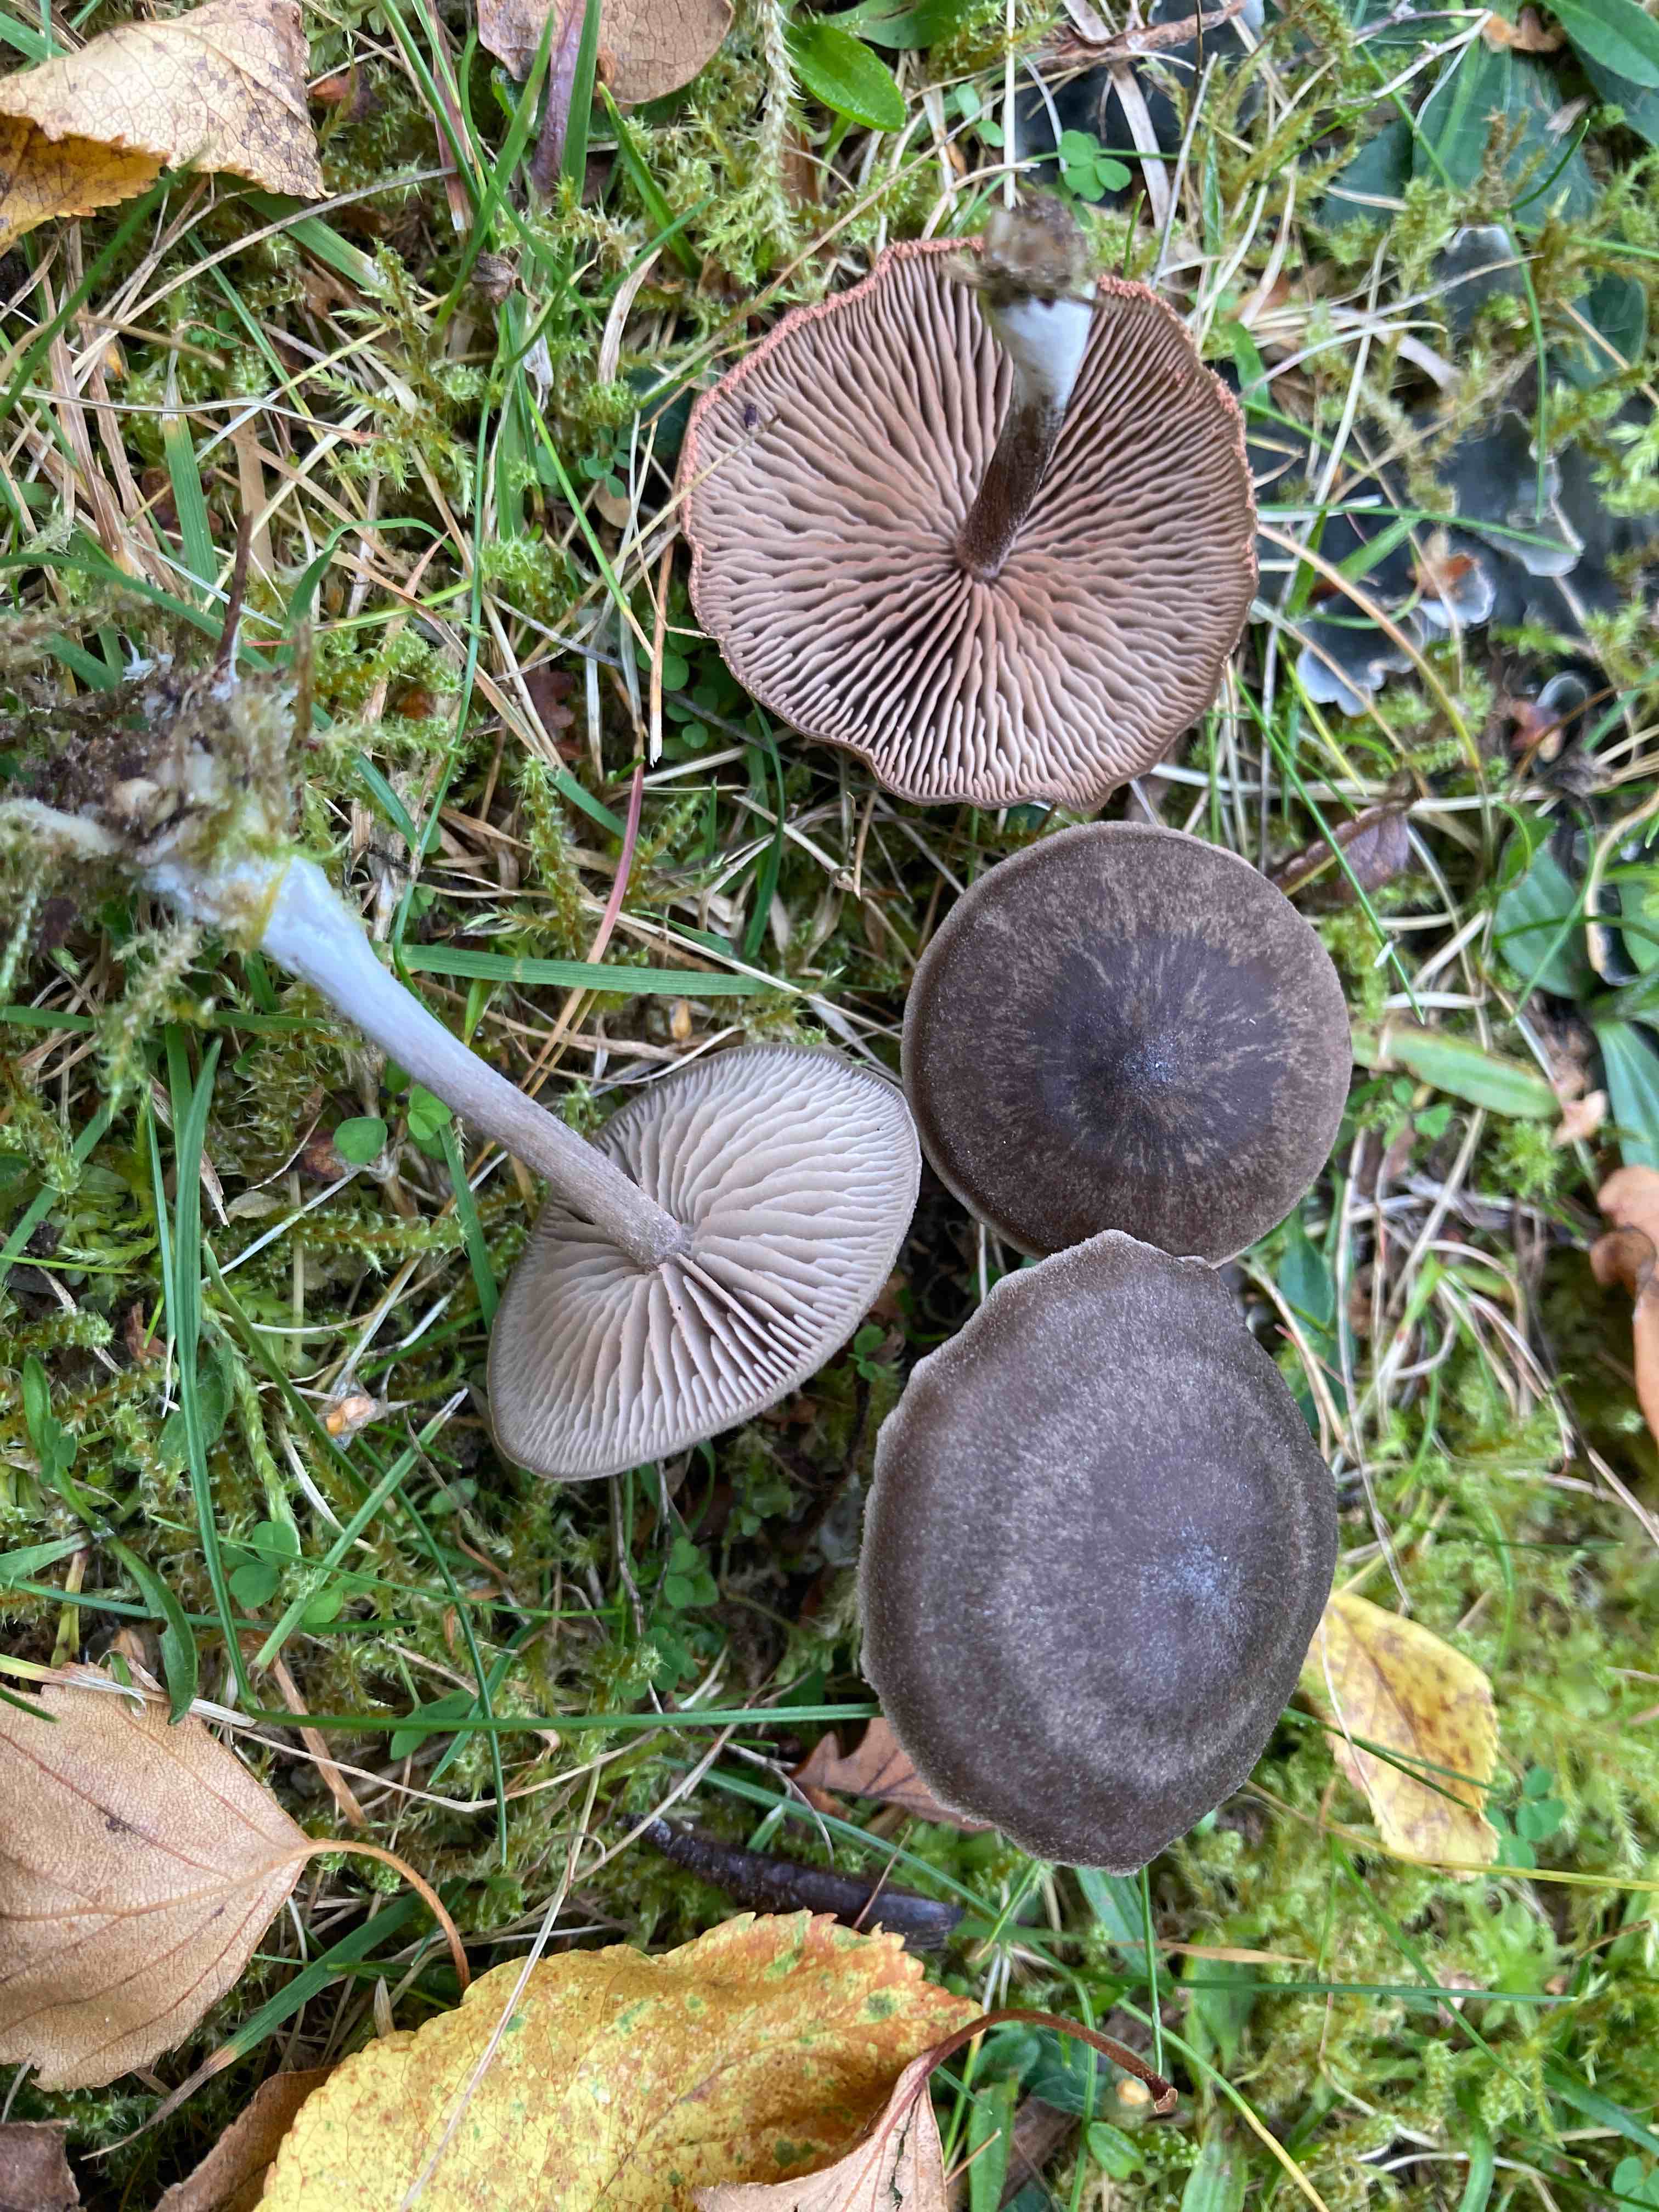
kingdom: Fungi
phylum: Basidiomycota
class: Agaricomycetes
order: Agaricales
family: Entolomataceae
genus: Entoloma
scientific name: Entoloma vindobonense
